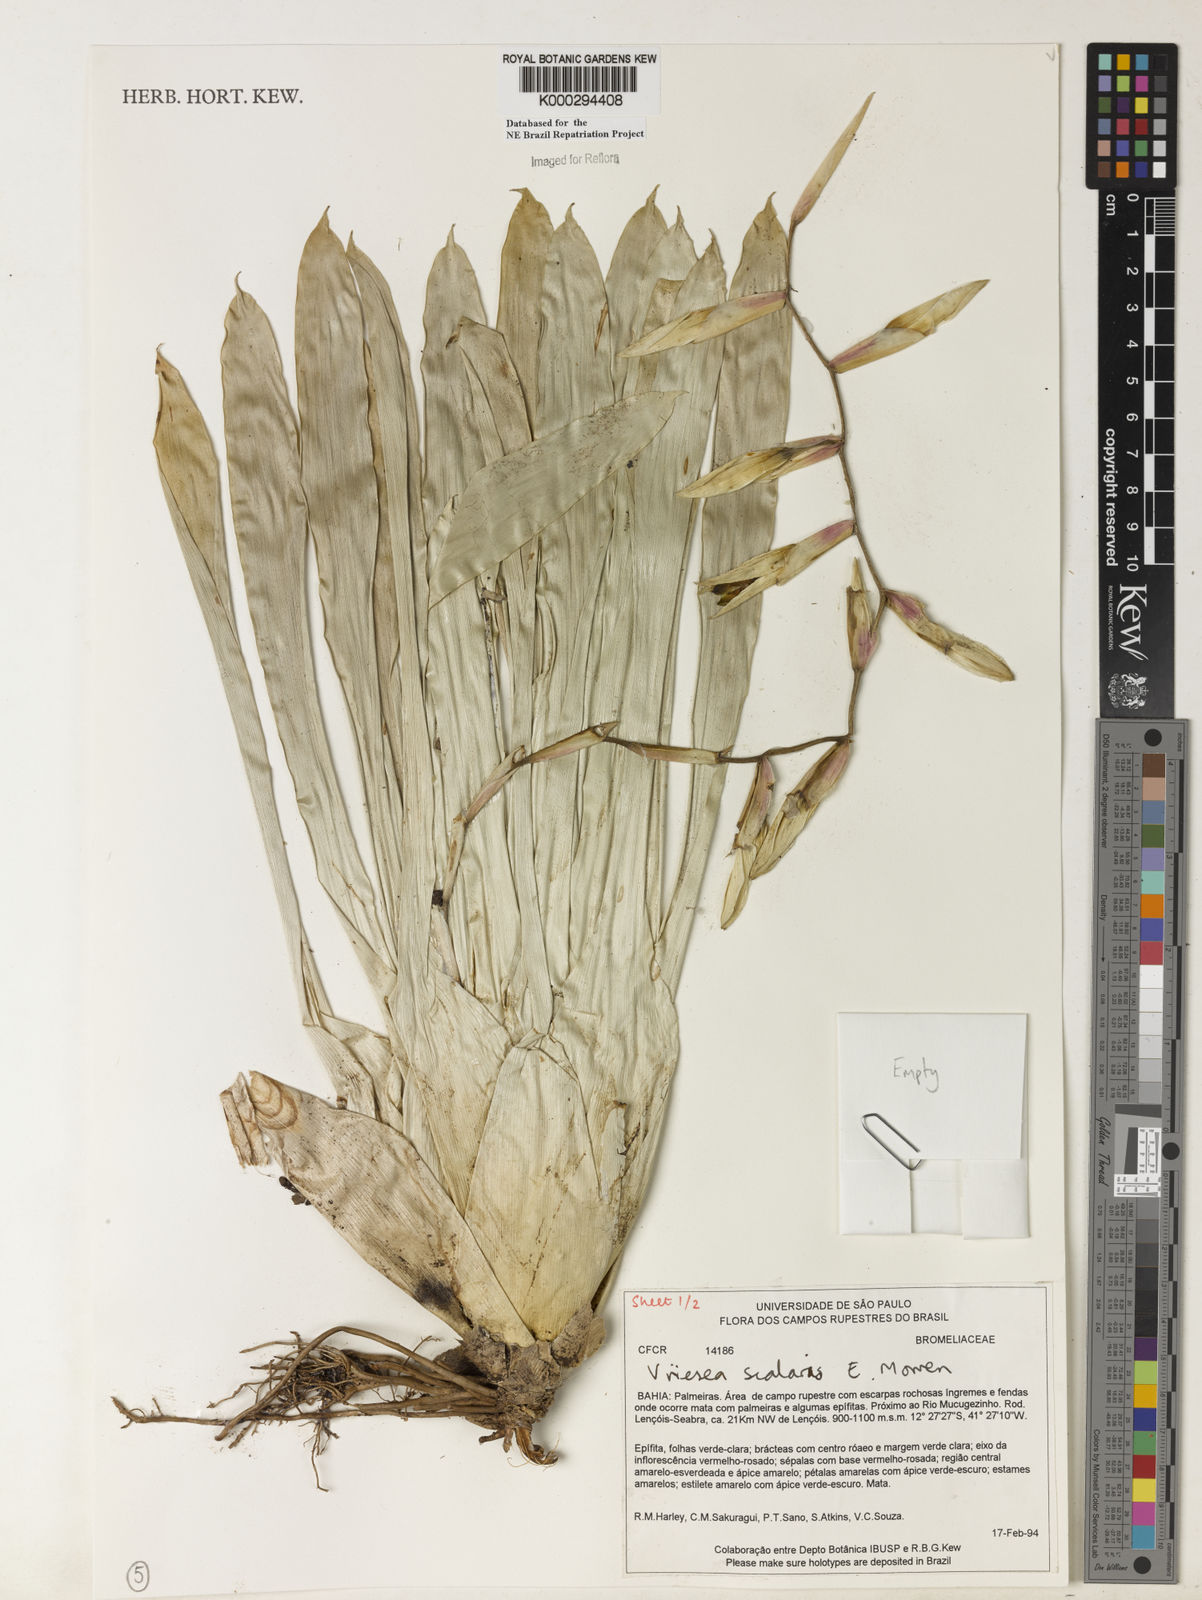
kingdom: Plantae
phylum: Tracheophyta
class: Liliopsida
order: Poales
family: Bromeliaceae
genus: Vriesea
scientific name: Vriesea scalaris
